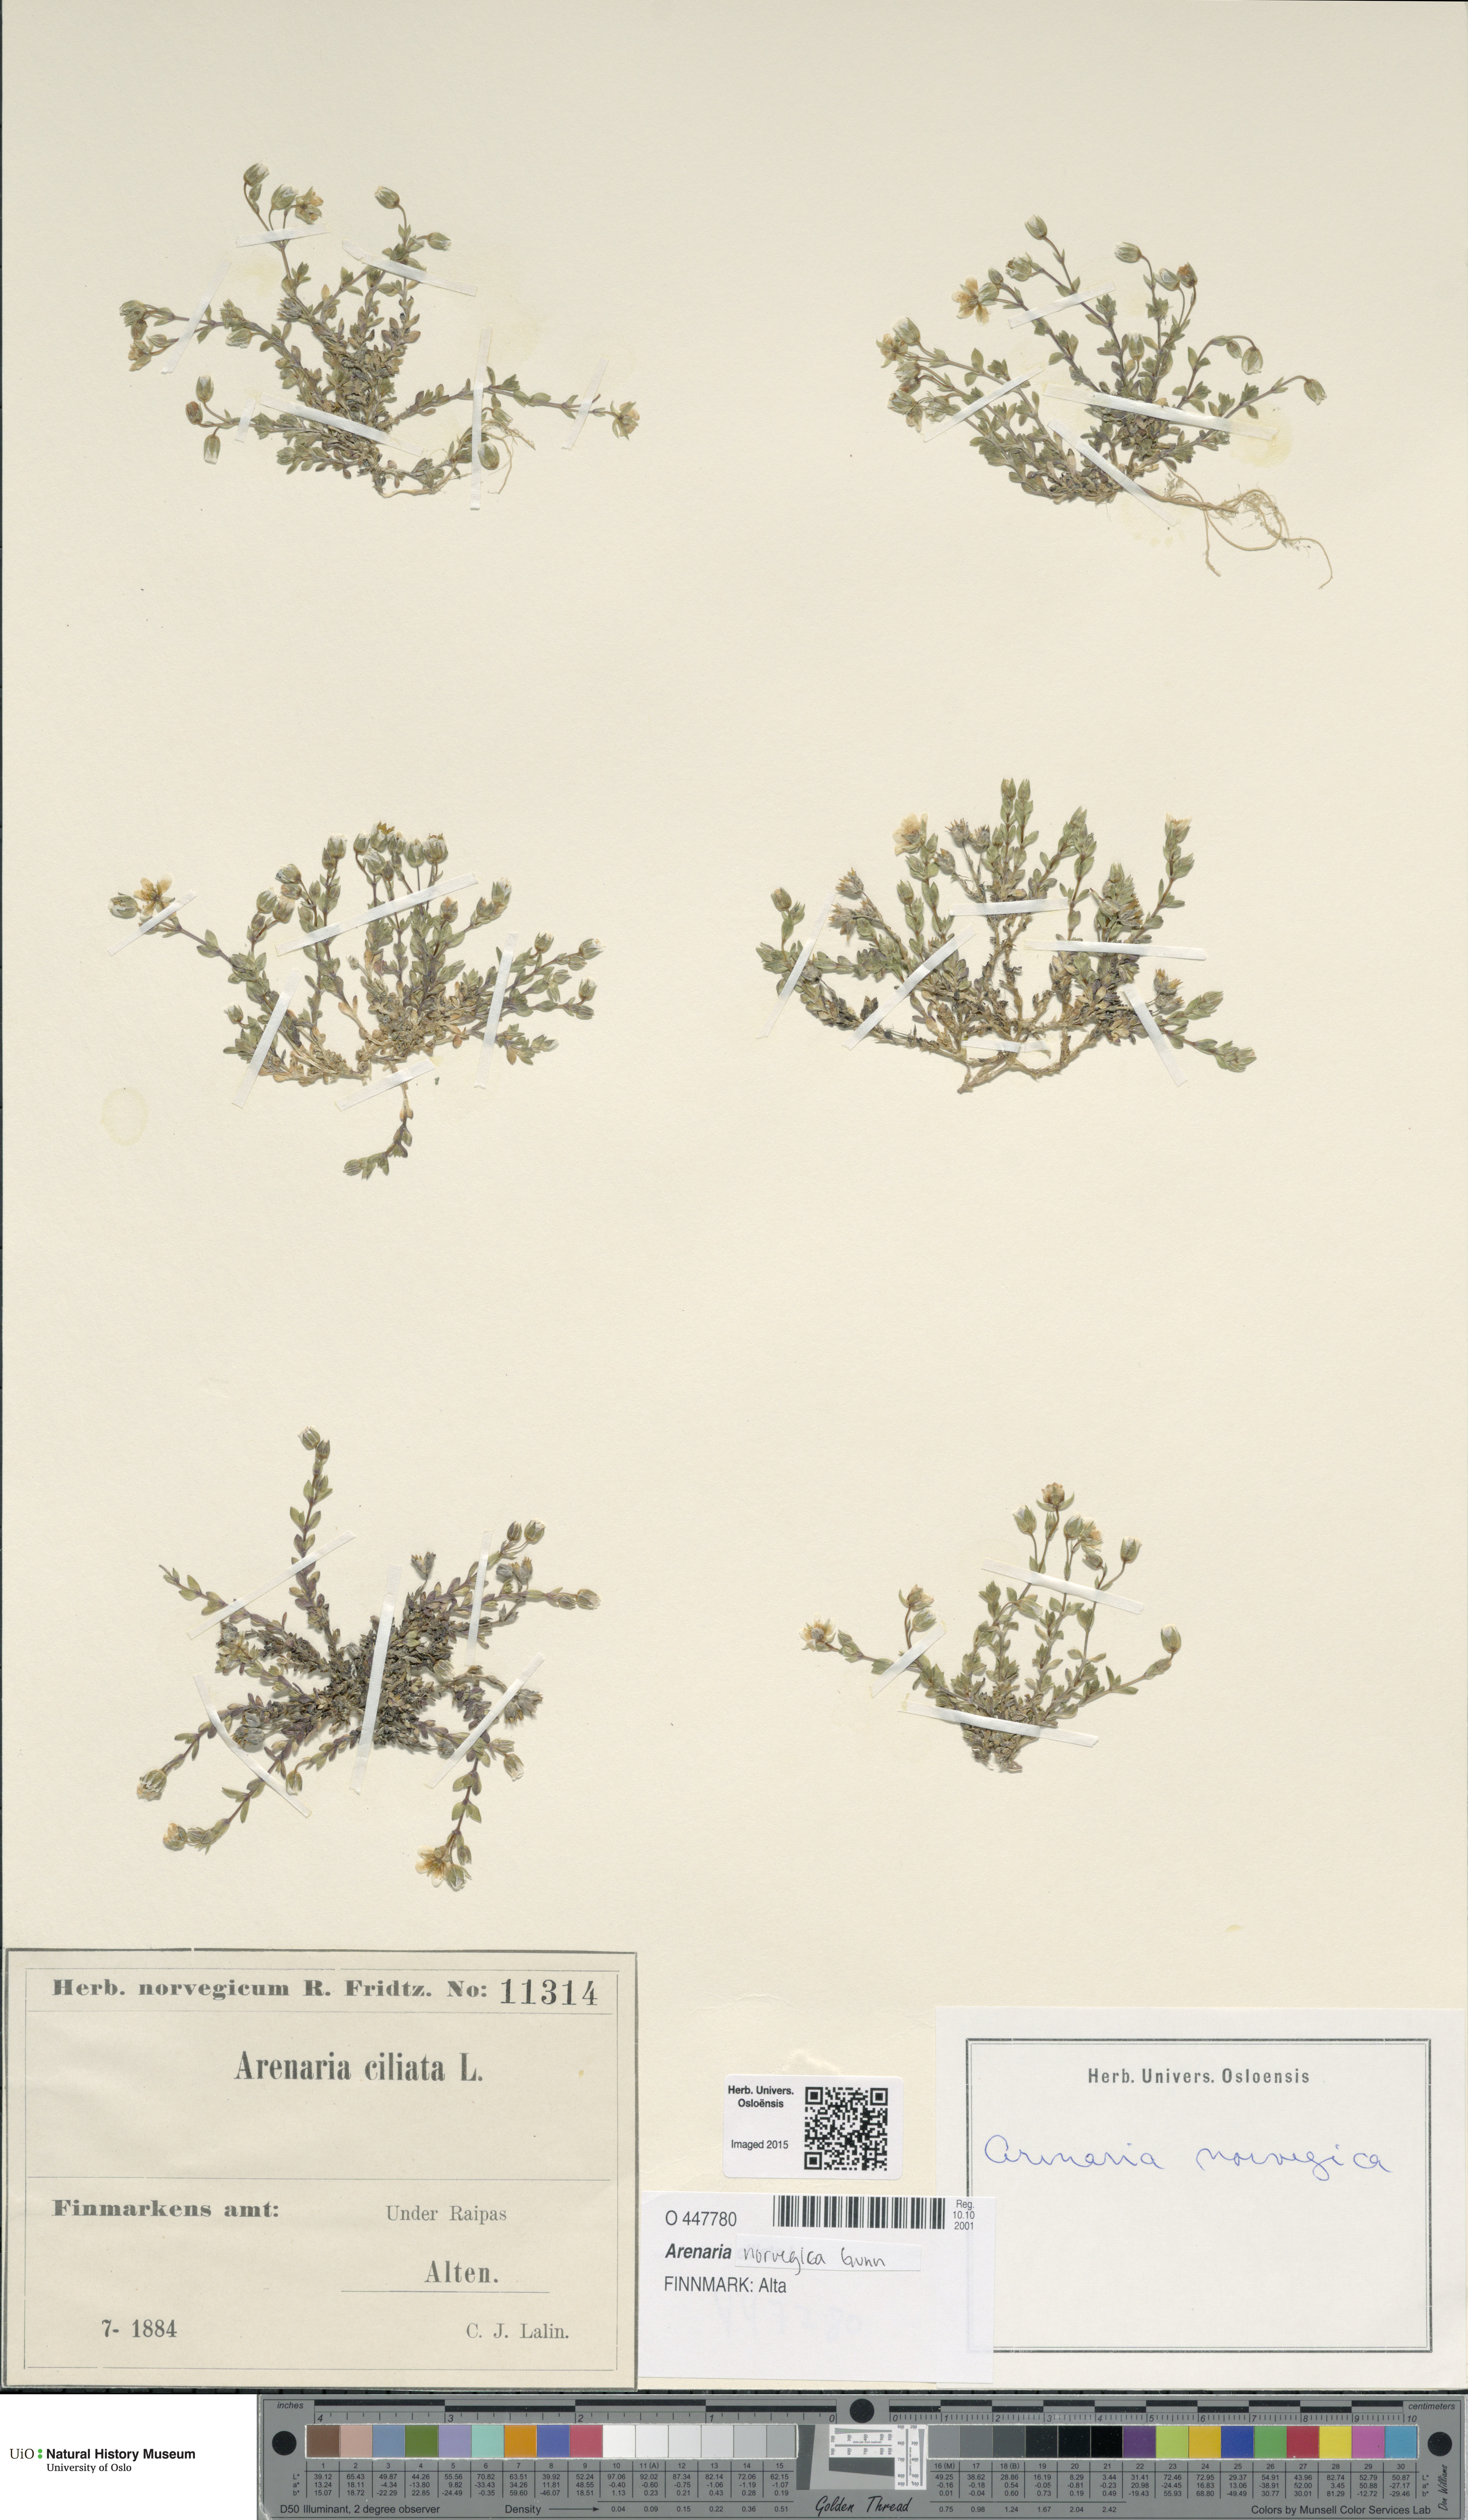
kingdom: Plantae
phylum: Tracheophyta
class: Magnoliopsida
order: Caryophyllales
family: Caryophyllaceae
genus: Arenaria
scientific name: Arenaria norvegica
